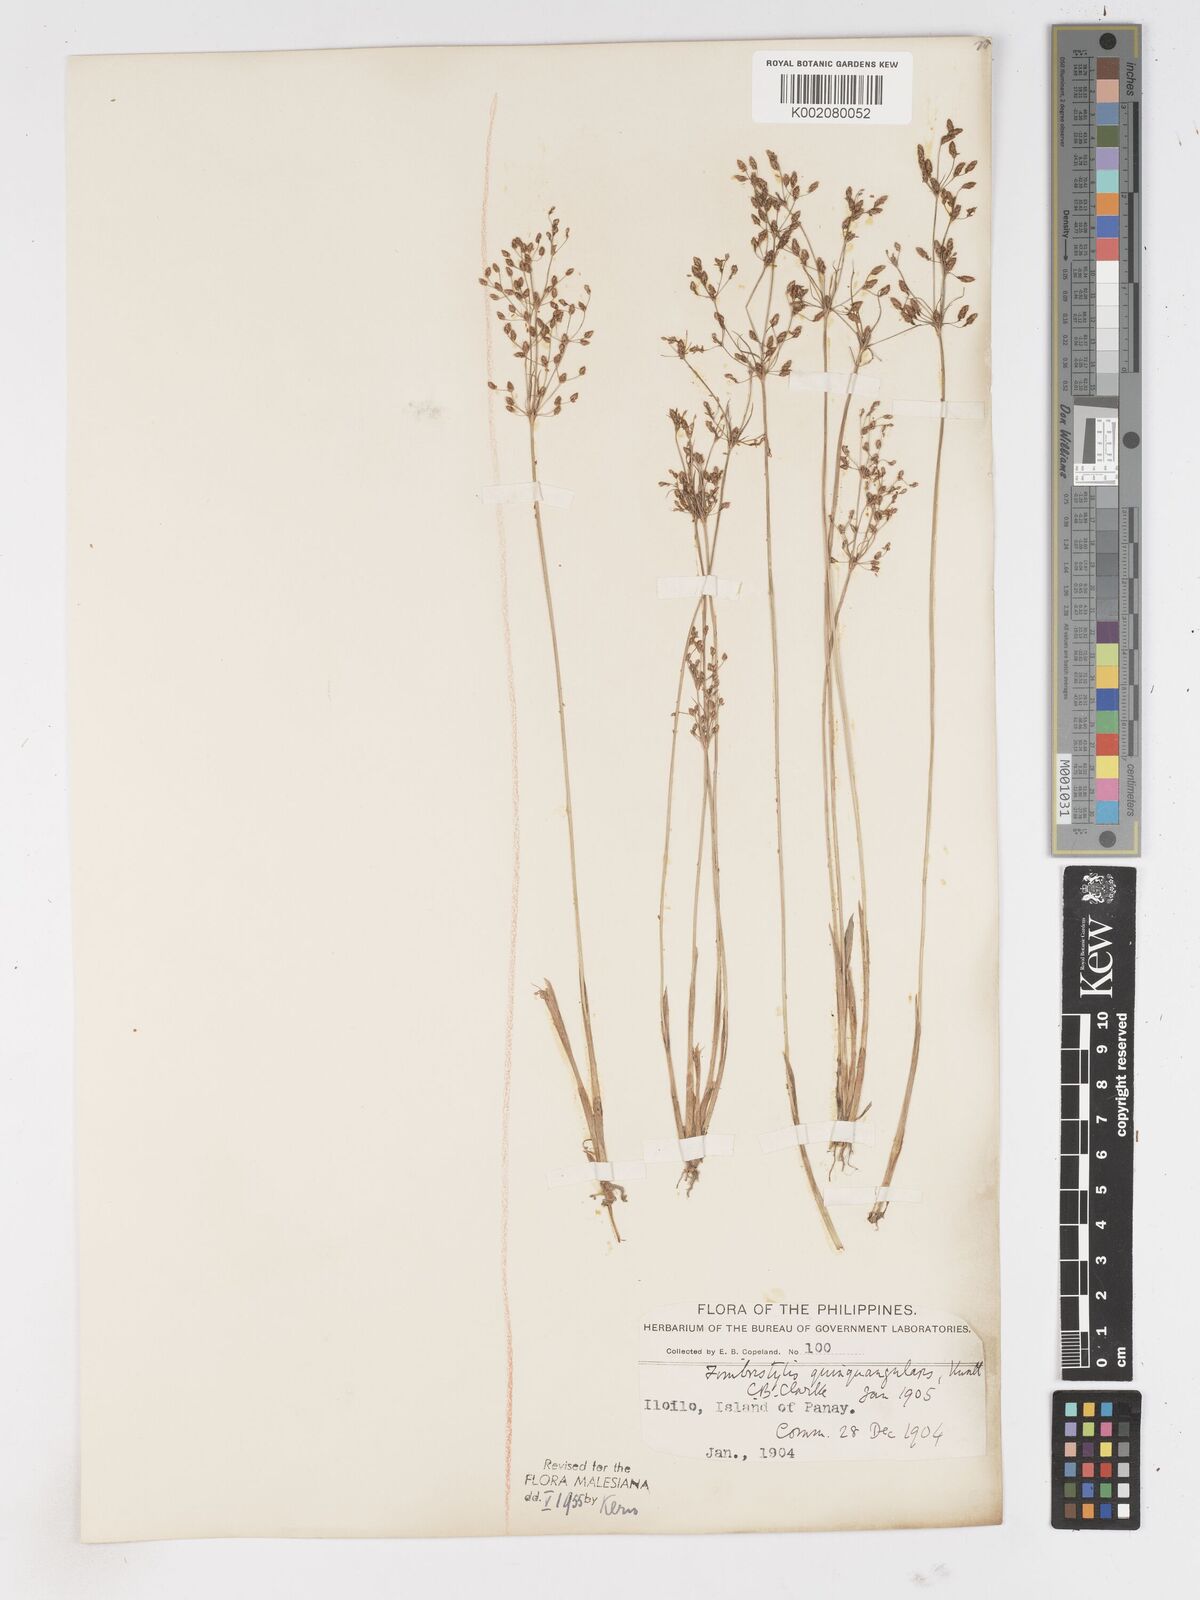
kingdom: Plantae
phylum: Tracheophyta
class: Liliopsida
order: Poales
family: Cyperaceae
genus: Fimbristylis
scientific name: Fimbristylis quinquangularis
